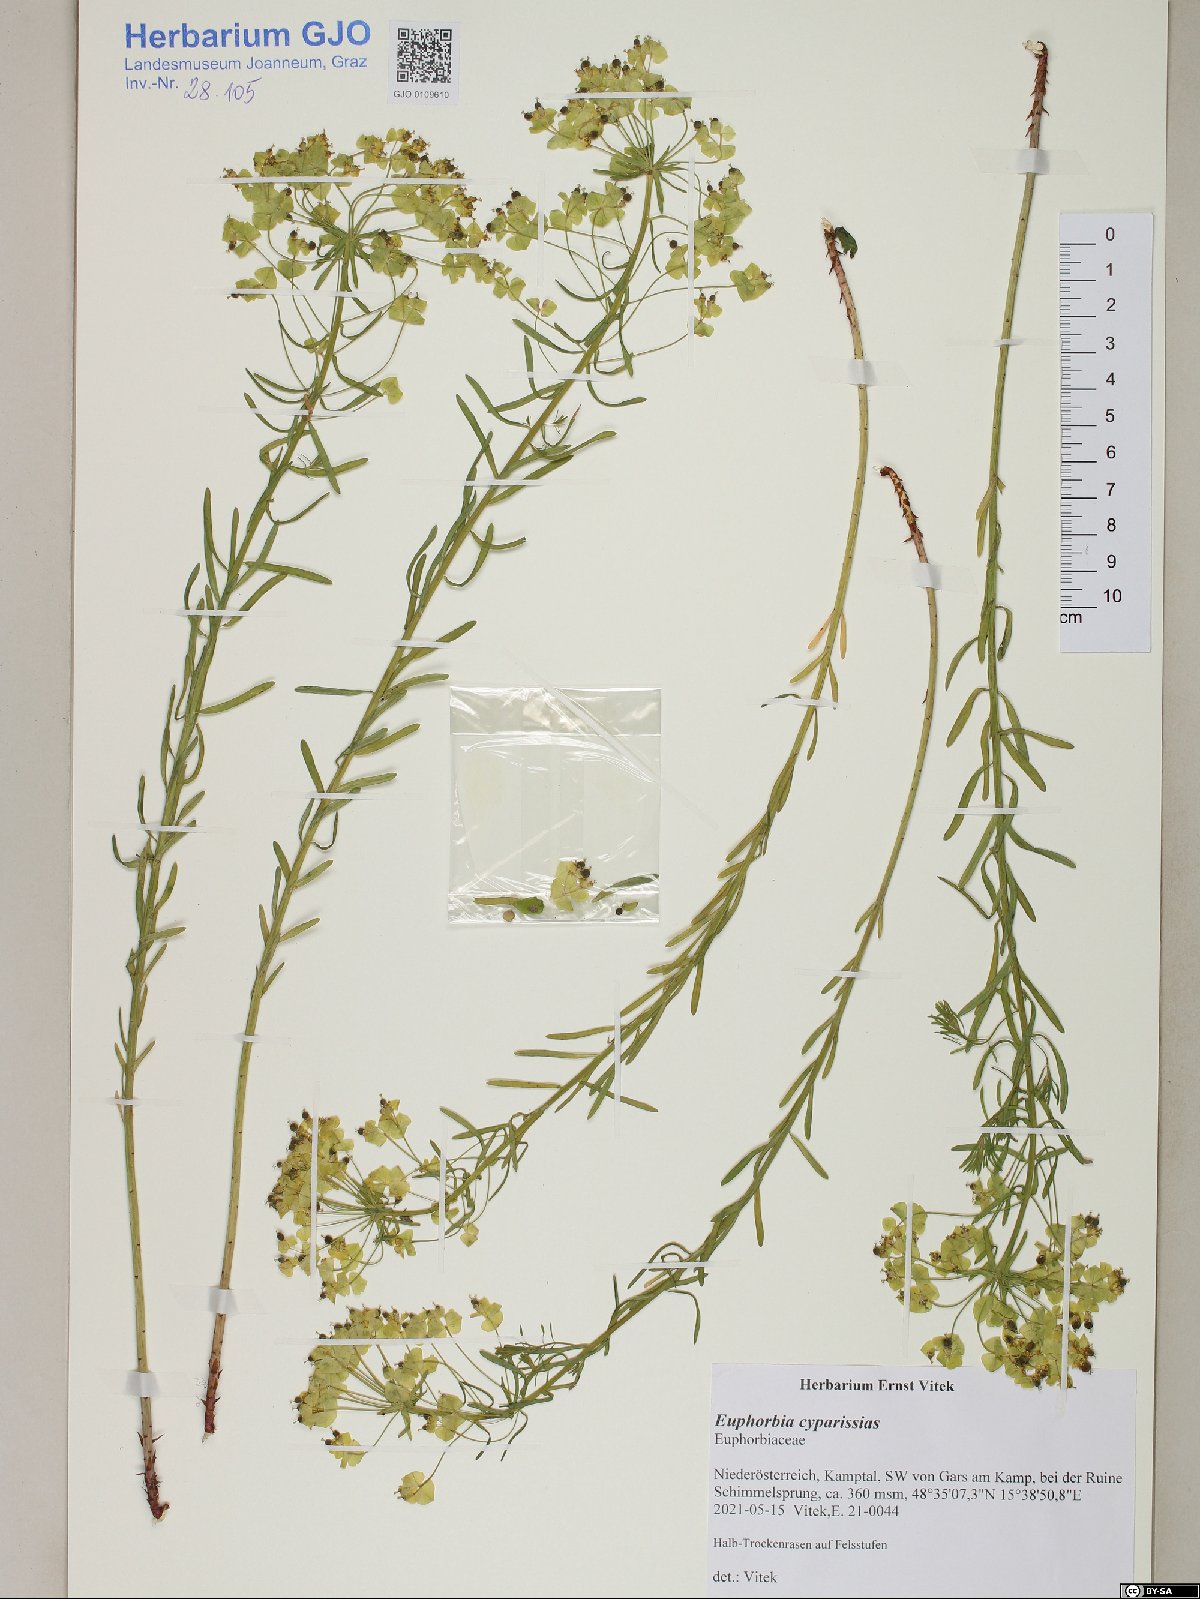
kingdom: Plantae
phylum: Tracheophyta
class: Magnoliopsida
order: Malpighiales
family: Euphorbiaceae
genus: Euphorbia
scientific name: Euphorbia cyparissias
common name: Cypress spurge
